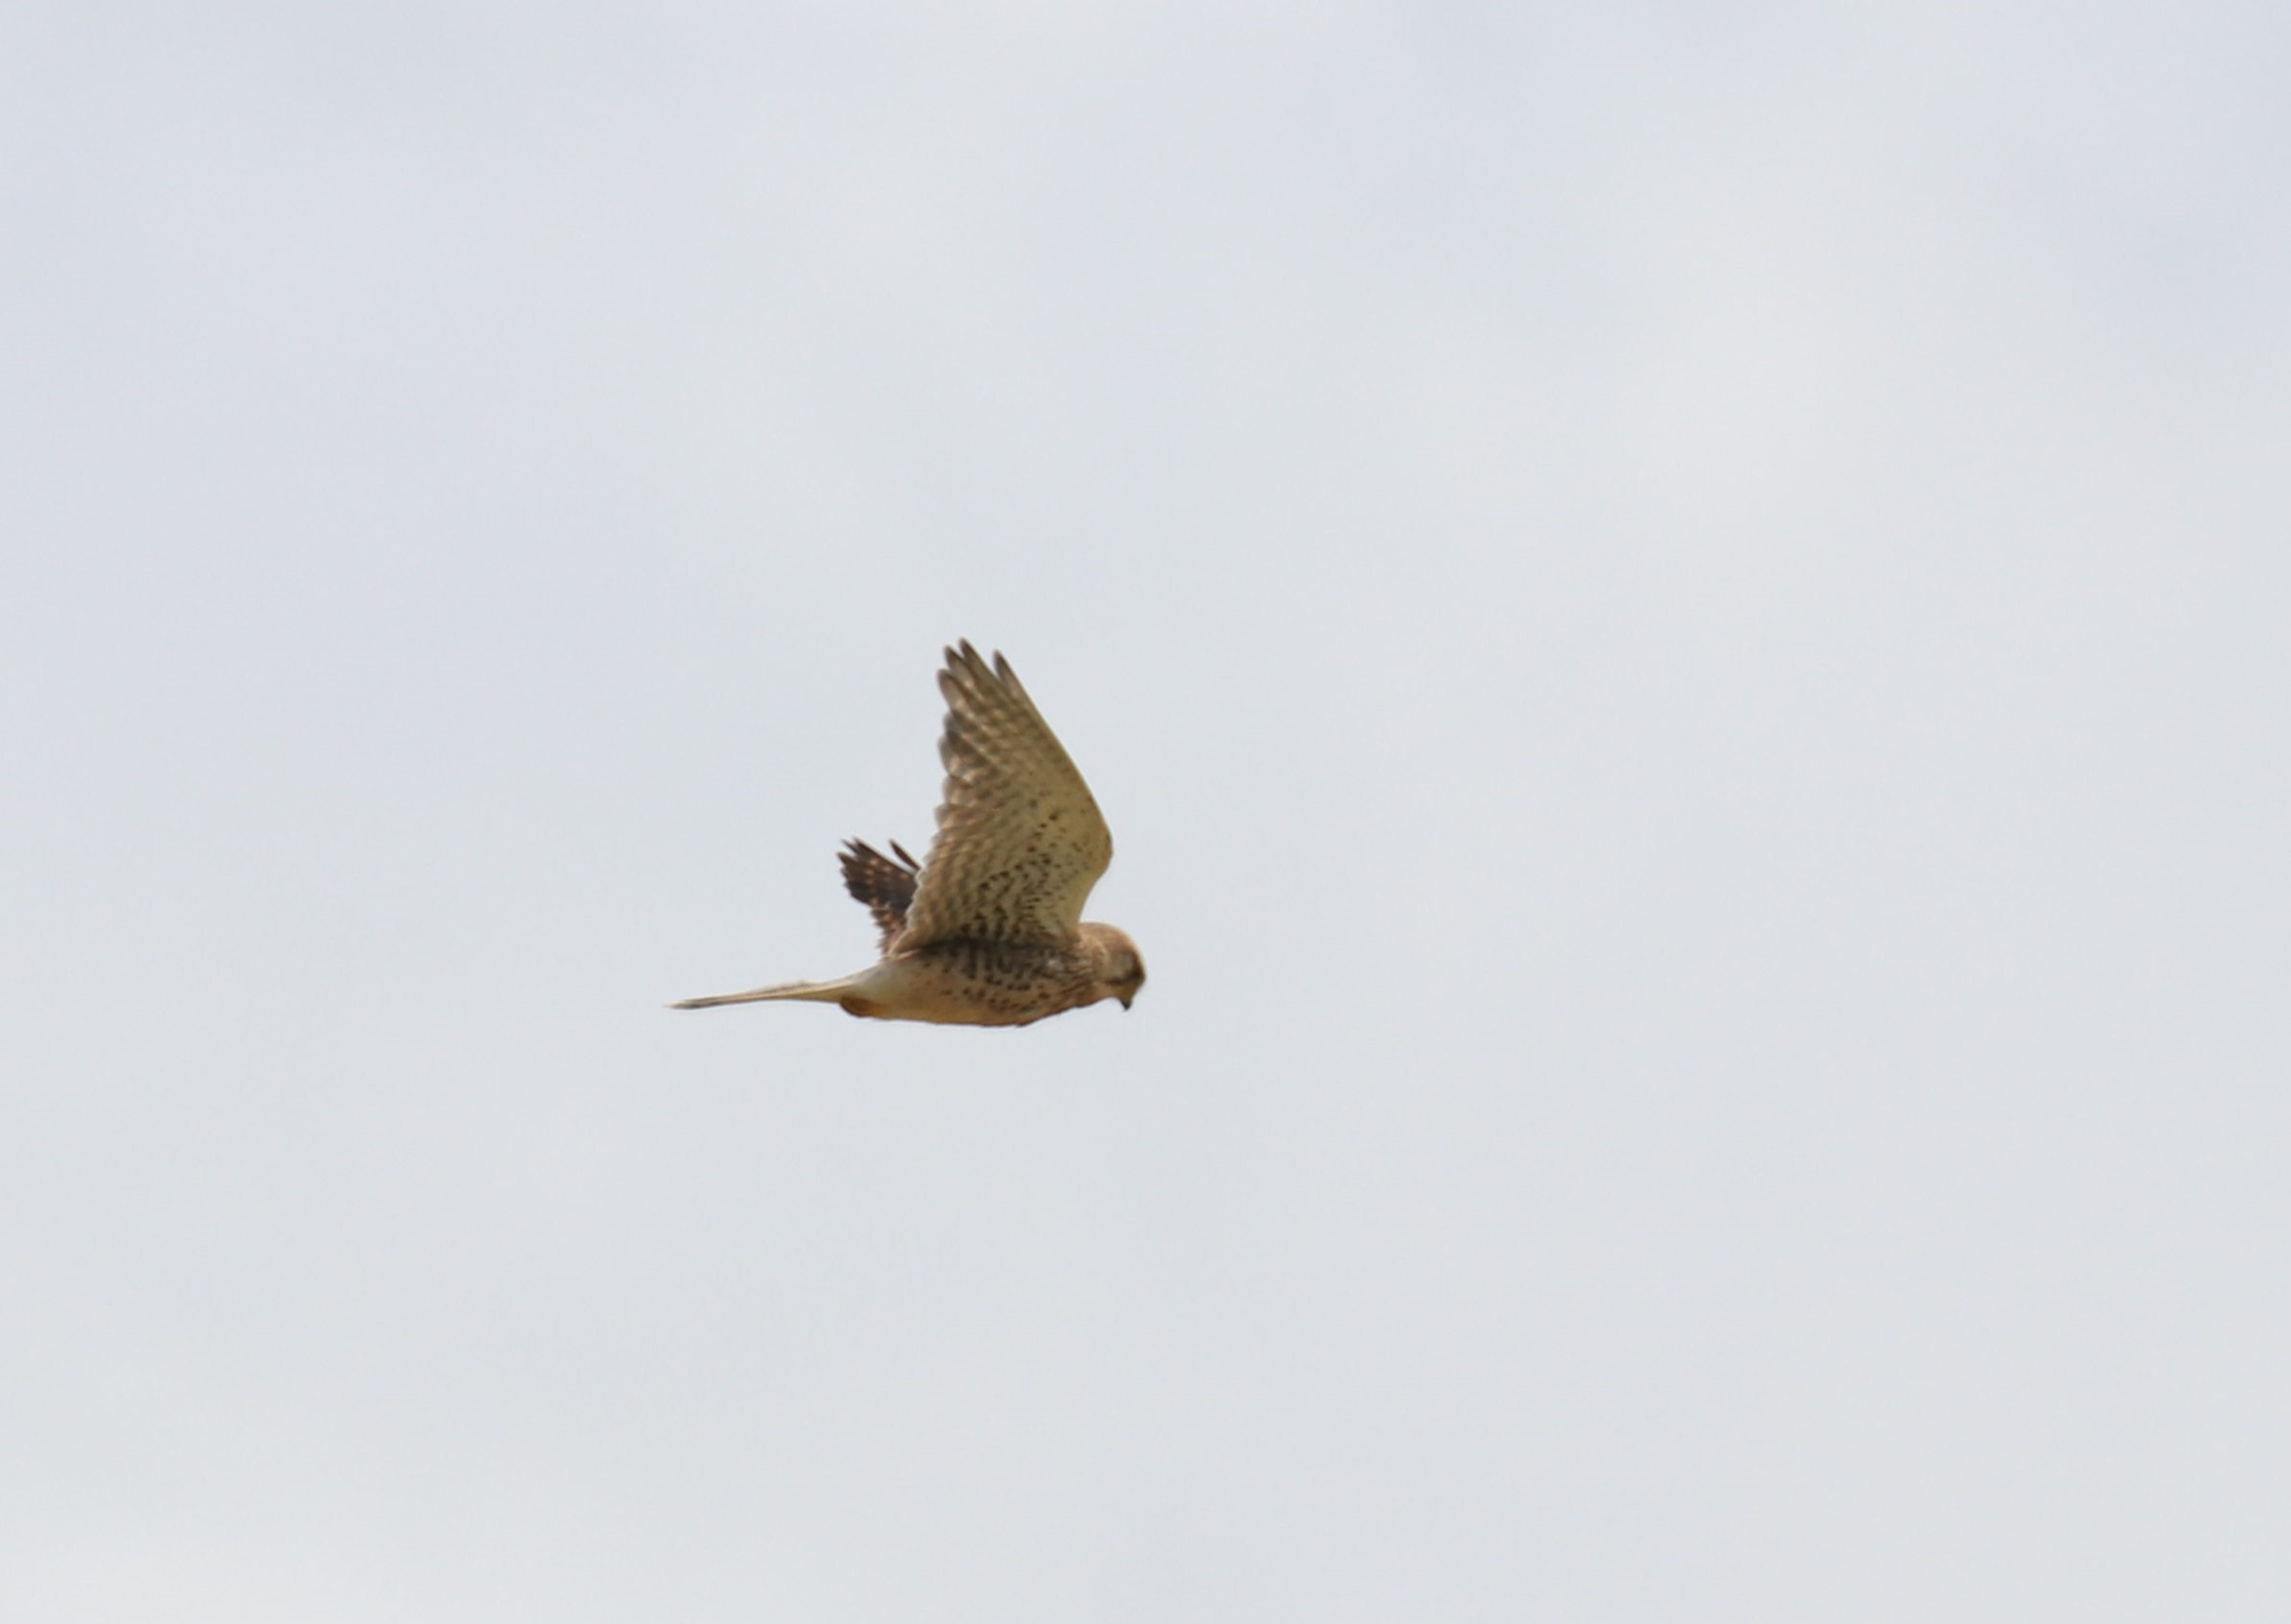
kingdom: Animalia
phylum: Chordata
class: Aves
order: Falconiformes
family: Falconidae
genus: Falco
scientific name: Falco tinnunculus
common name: Tårnfalk
